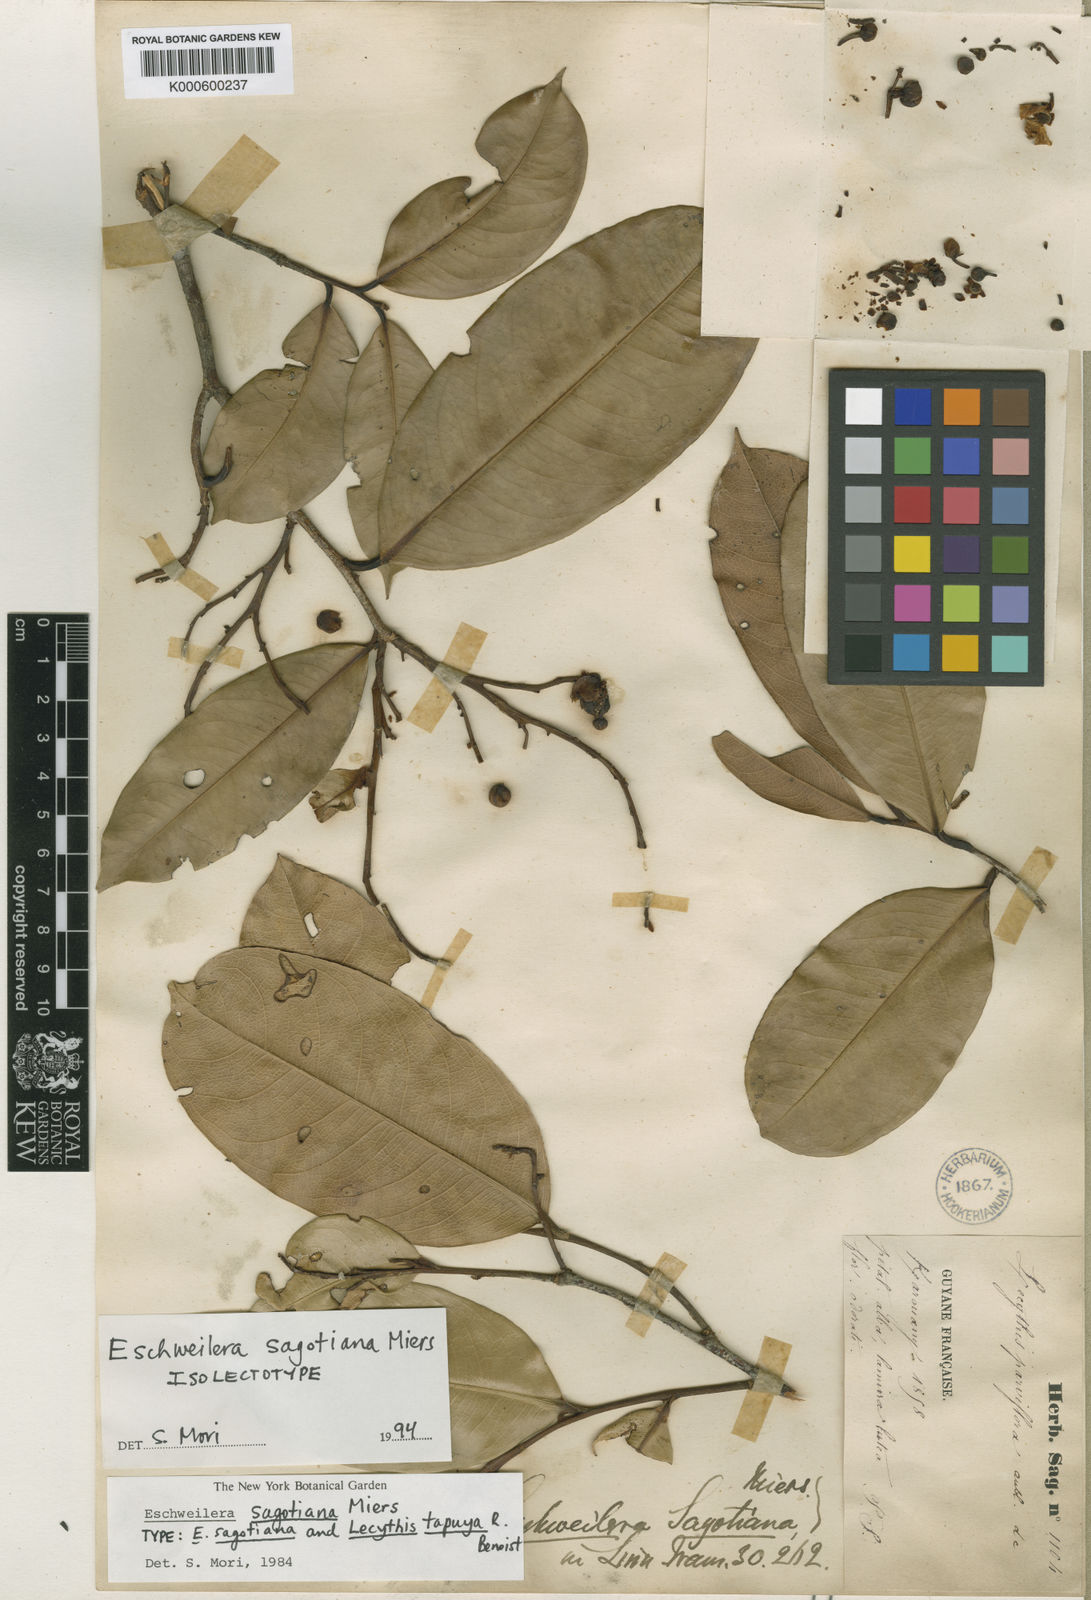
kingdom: Plantae
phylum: Tracheophyta
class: Magnoliopsida
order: Ericales
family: Lecythidaceae
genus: Eschweilera
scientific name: Eschweilera sagotiana
